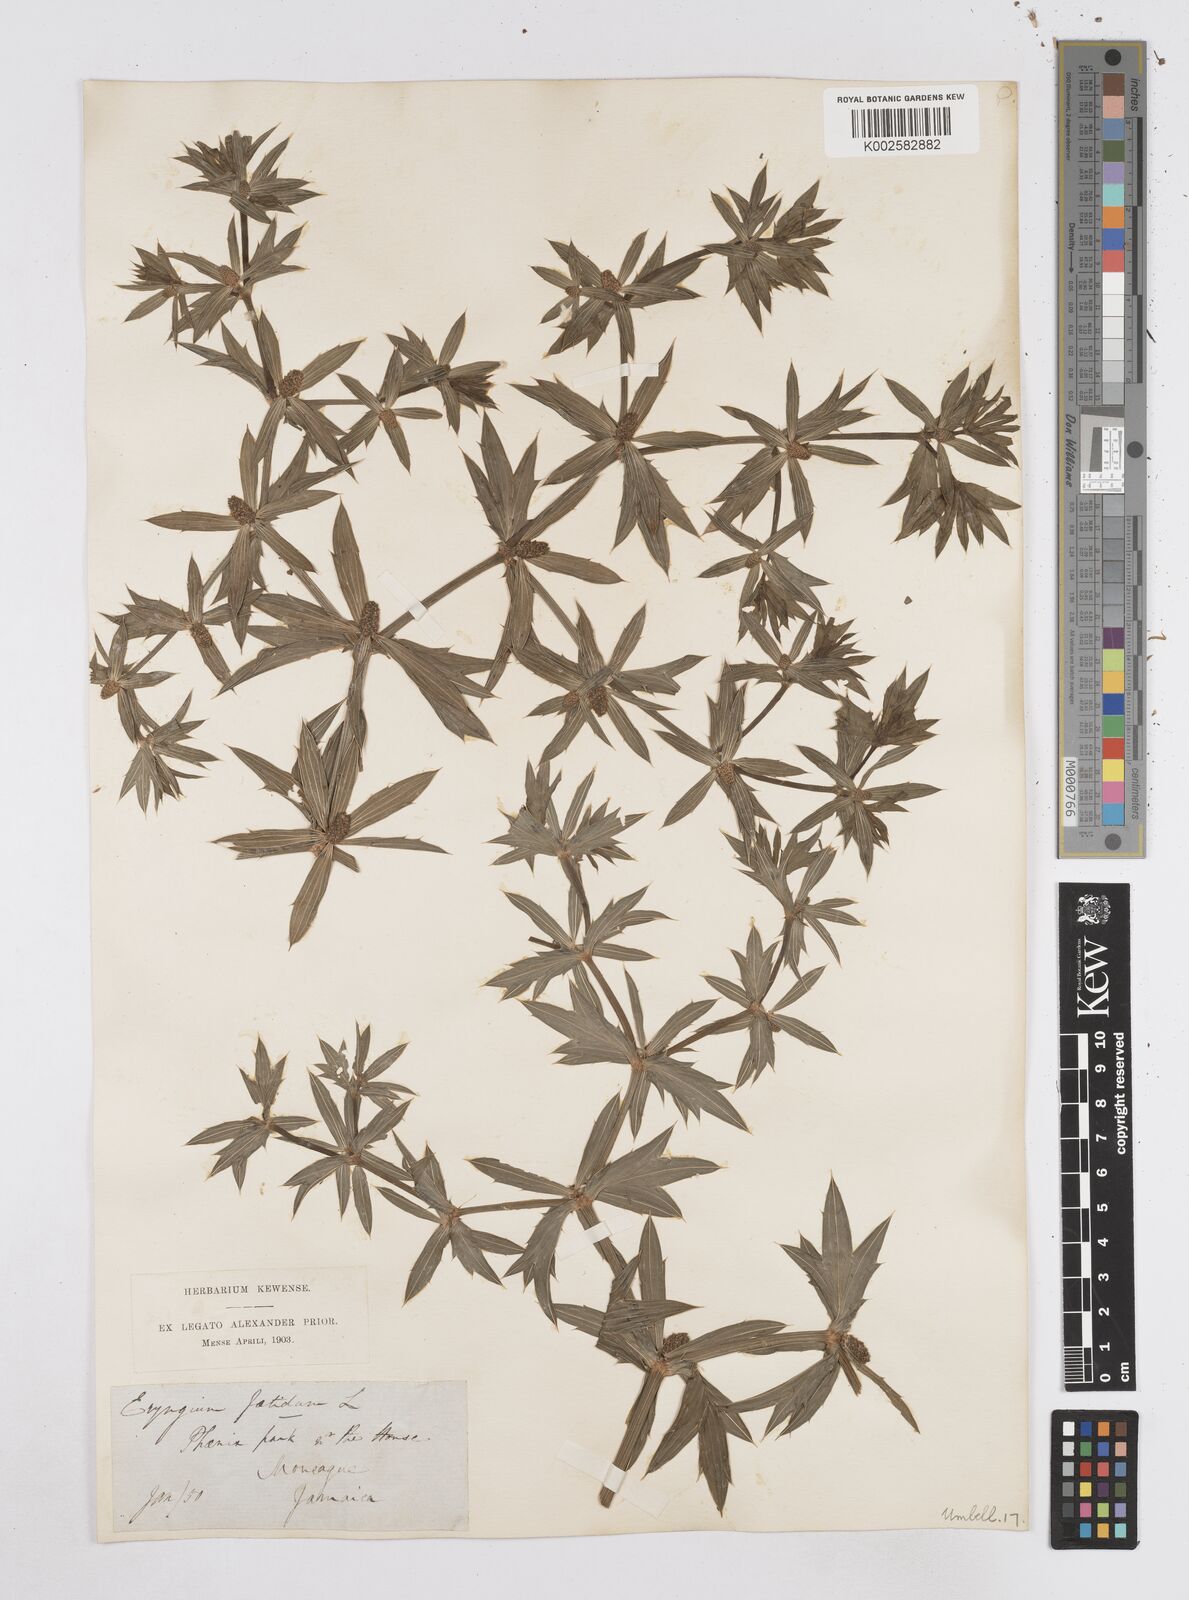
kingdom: Plantae
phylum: Tracheophyta
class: Magnoliopsida
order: Apiales
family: Apiaceae
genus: Eryngium
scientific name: Eryngium foetidum
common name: Fitweed
